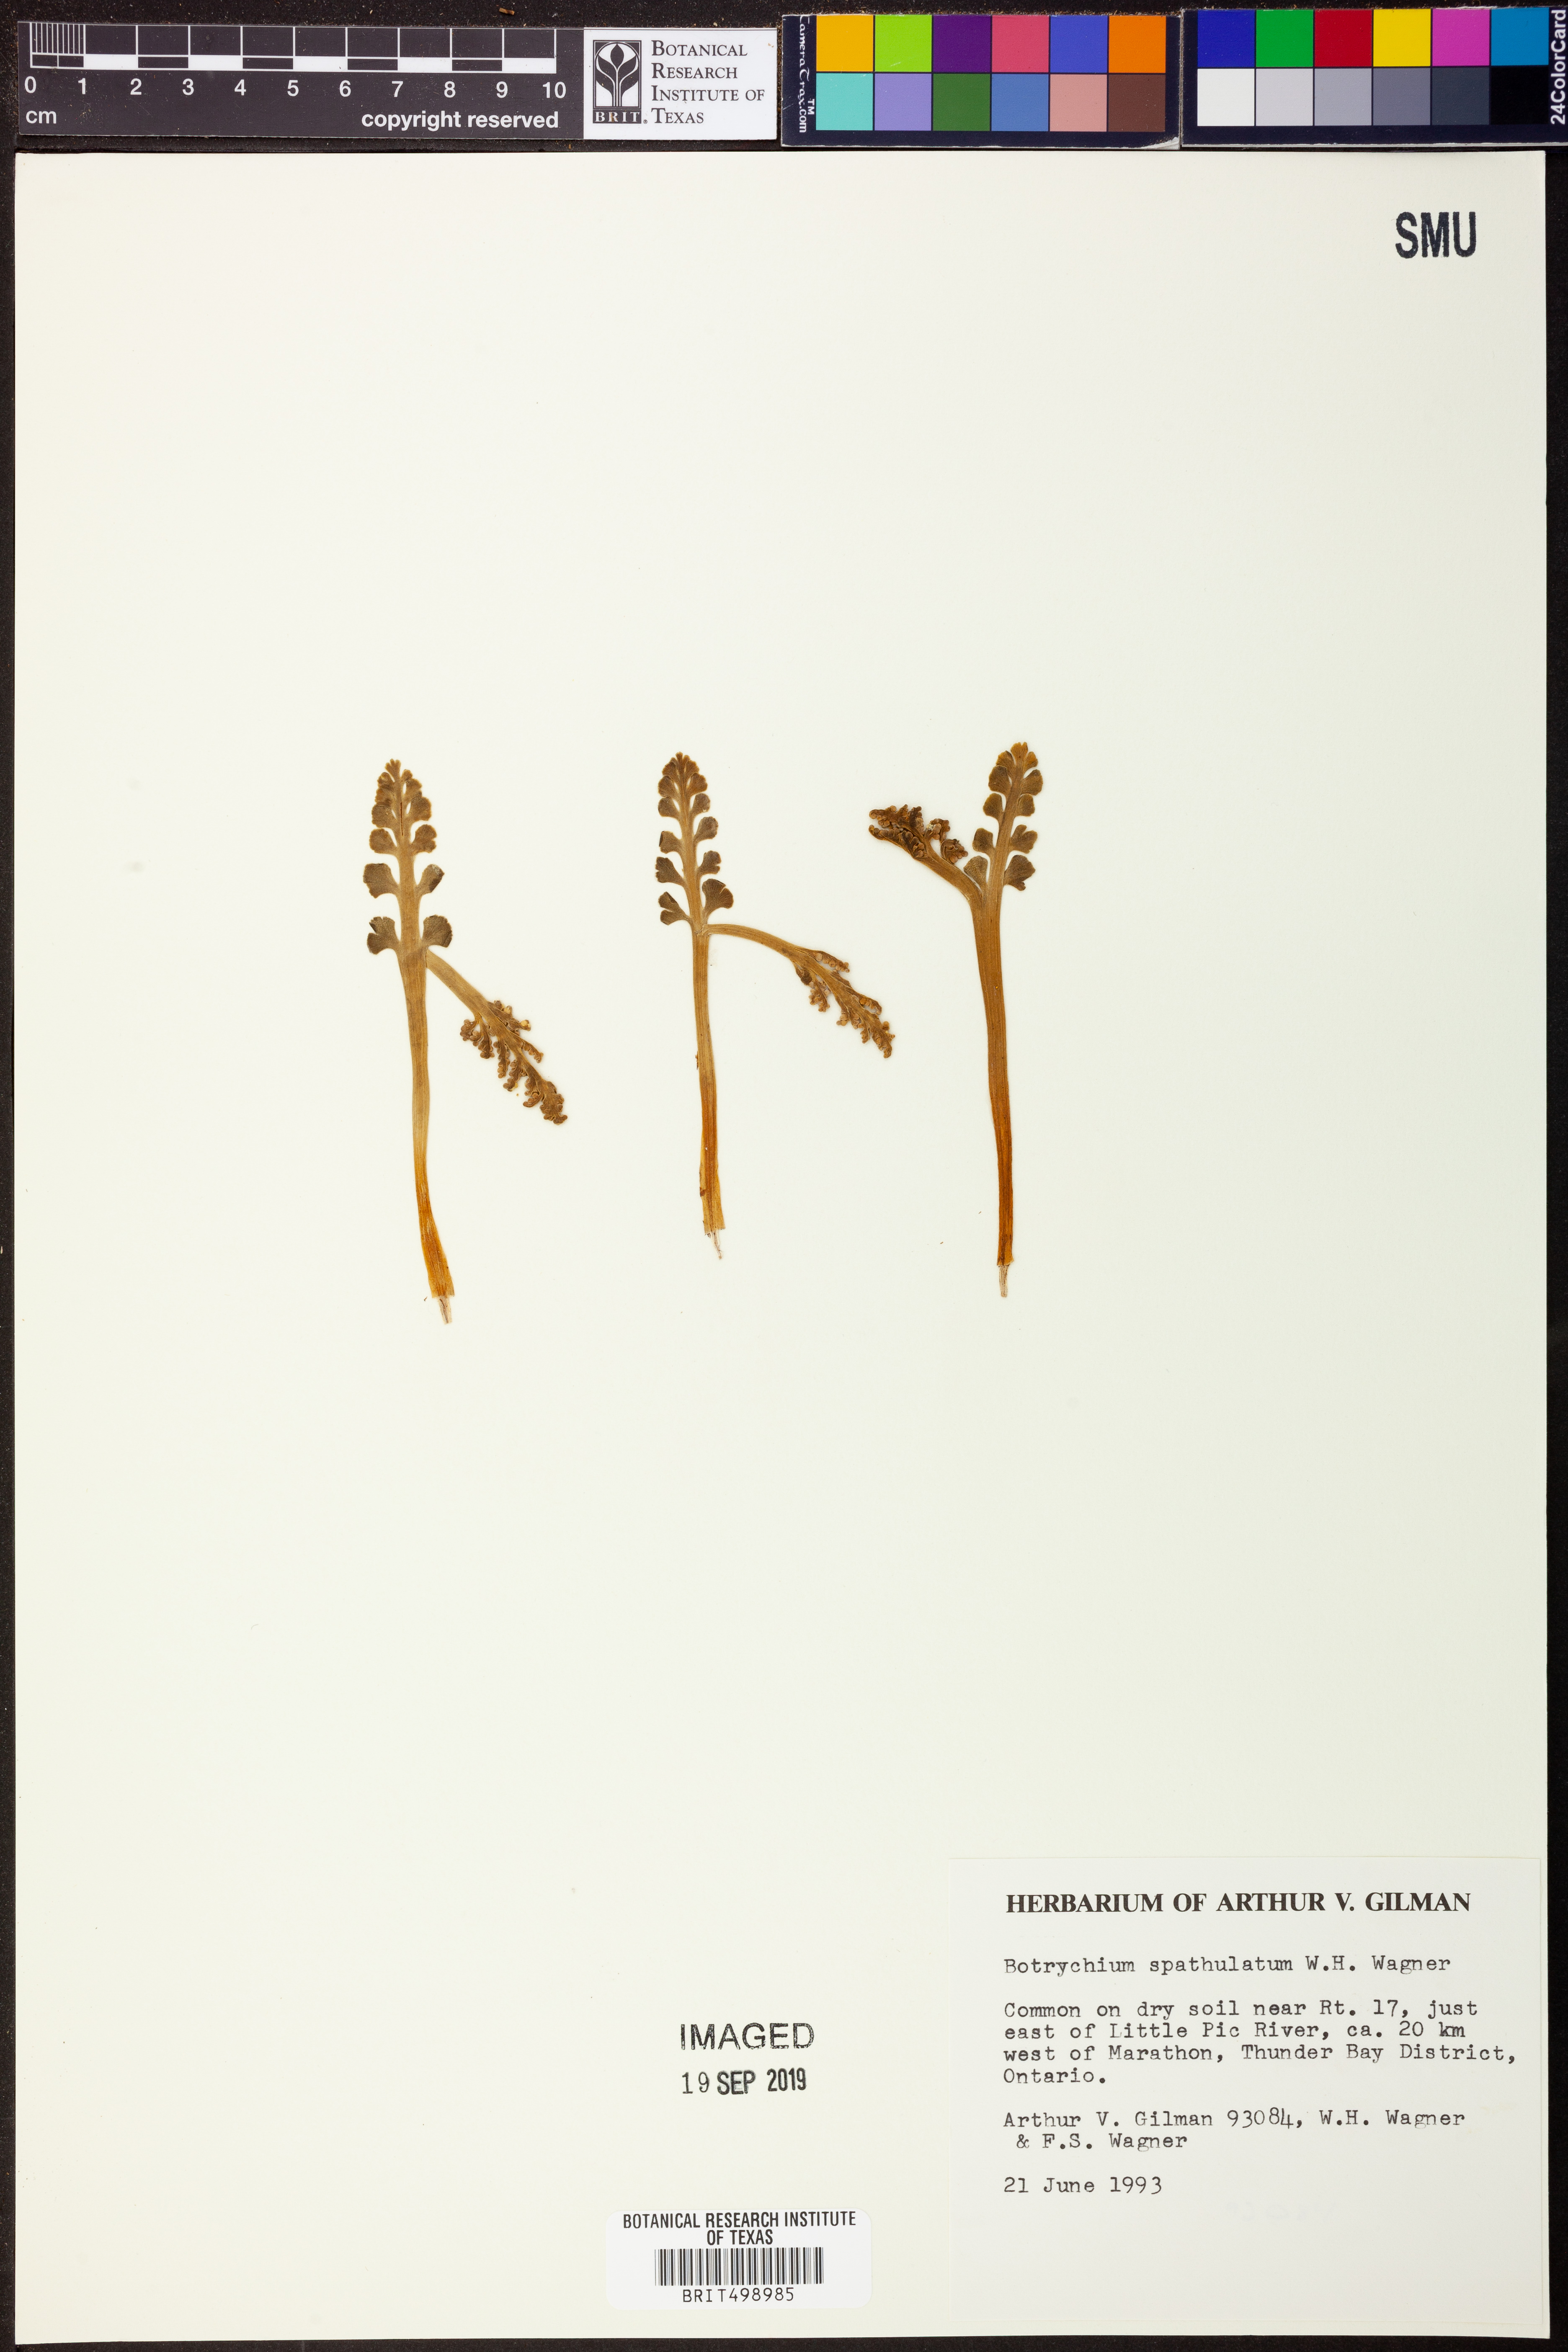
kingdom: Plantae
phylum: Tracheophyta
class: Polypodiopsida
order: Ophioglossales
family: Ophioglossaceae
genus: Botrychium
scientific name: Botrychium spathulatum
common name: Spatulate moonwort
